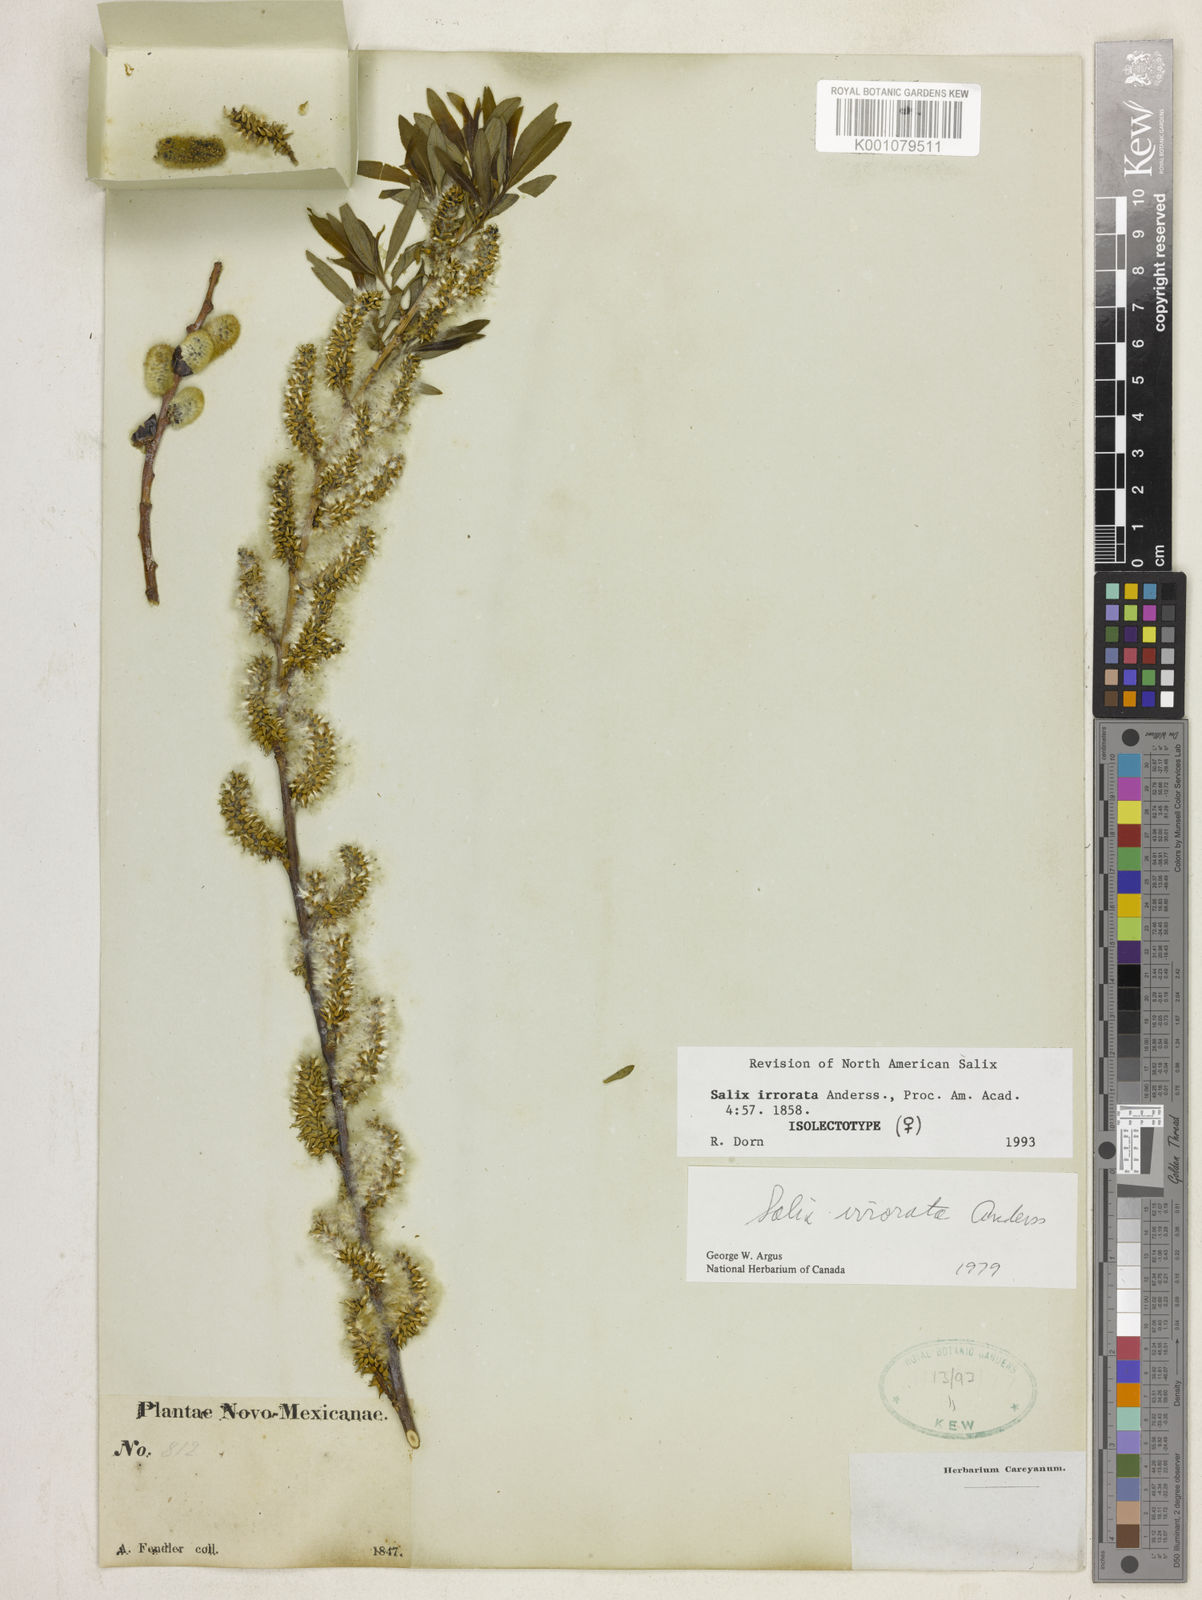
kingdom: Plantae
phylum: Tracheophyta
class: Magnoliopsida
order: Malpighiales
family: Salicaceae
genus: Salix
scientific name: Salix irrorata
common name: Blue-stem willow
